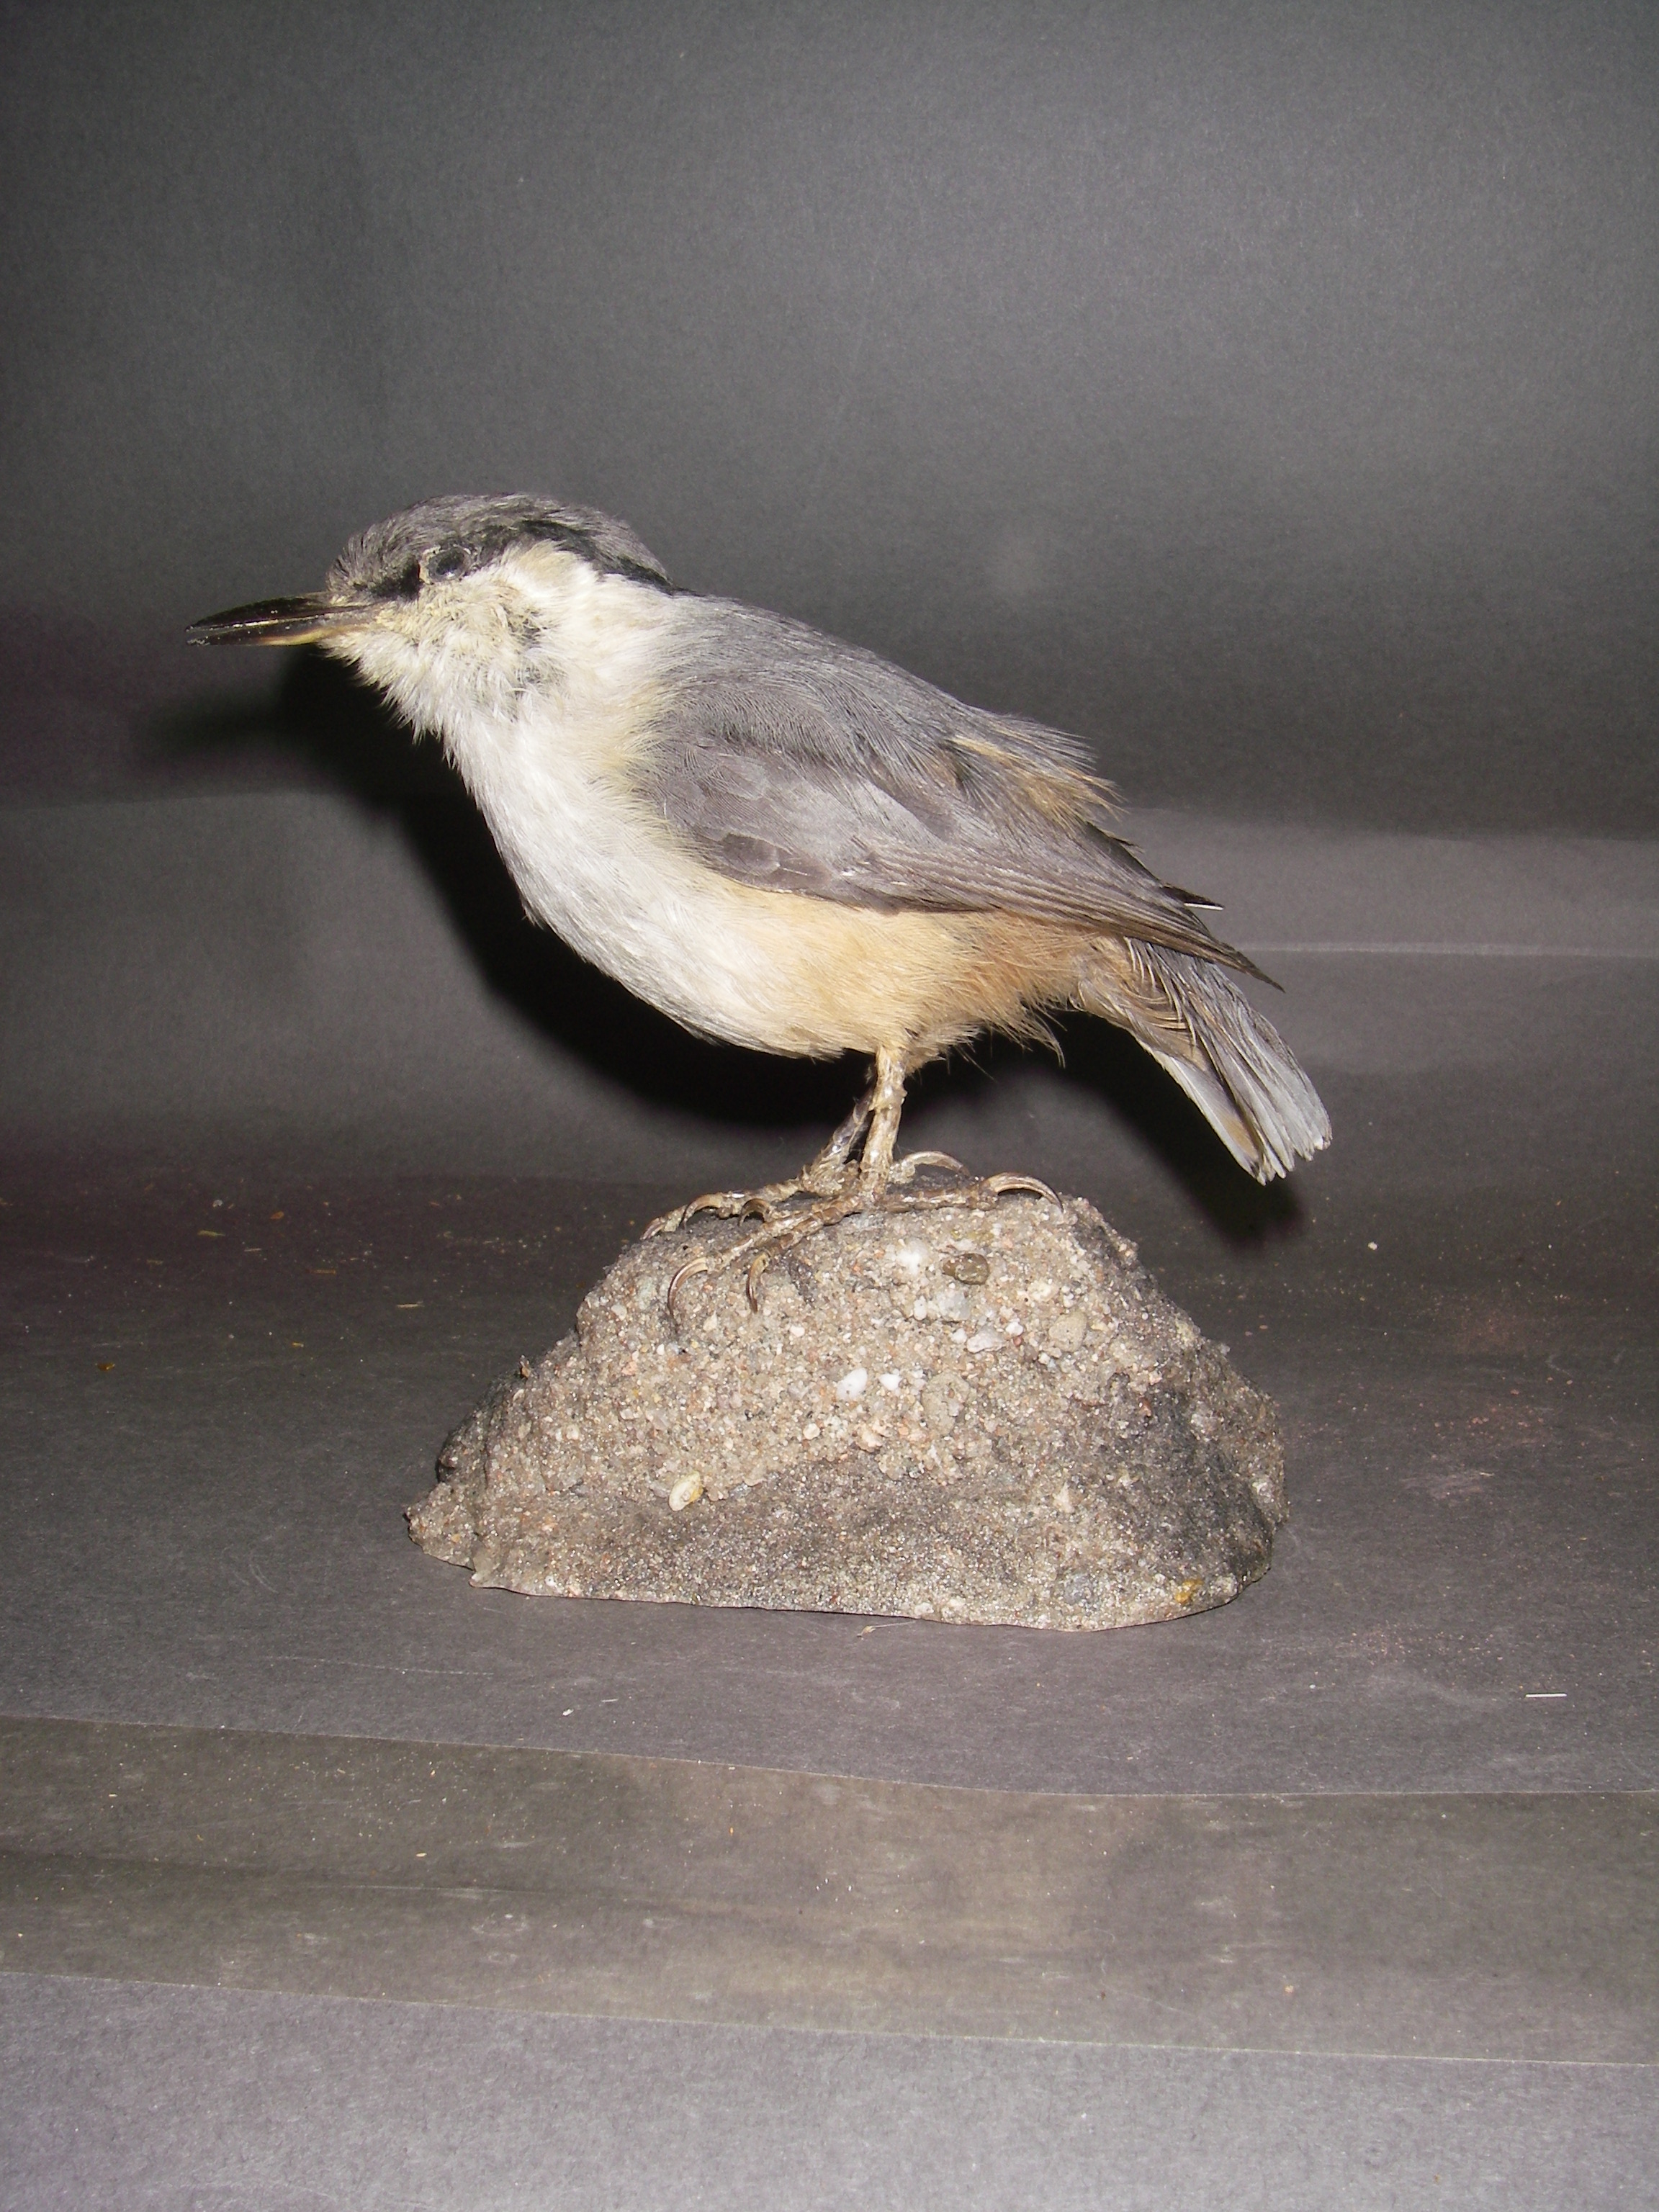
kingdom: Animalia
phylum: Chordata
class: Aves
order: Passeriformes
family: Sittidae
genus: Sitta
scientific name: Sitta neumayer
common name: Western rock nuthatch
